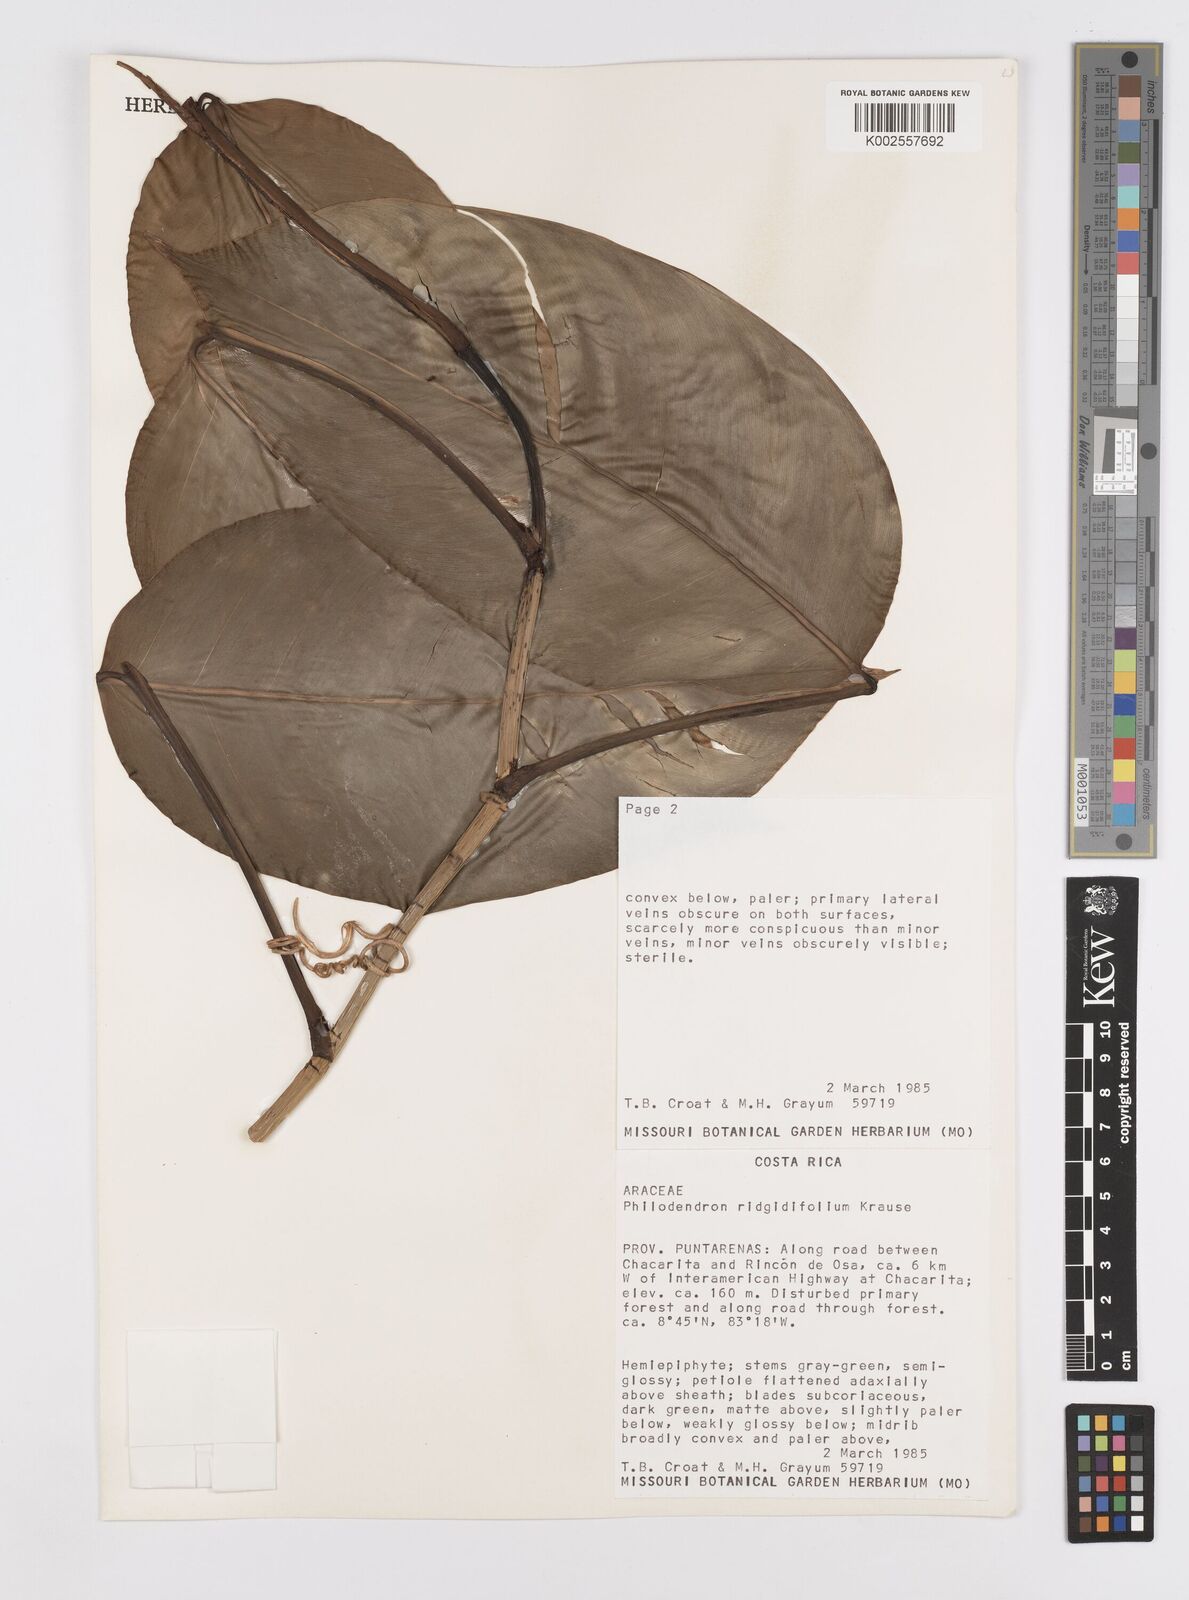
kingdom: Plantae
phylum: Tracheophyta
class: Liliopsida
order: Alismatales
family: Araceae
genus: Philodendron
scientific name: Philodendron rigidifolium
